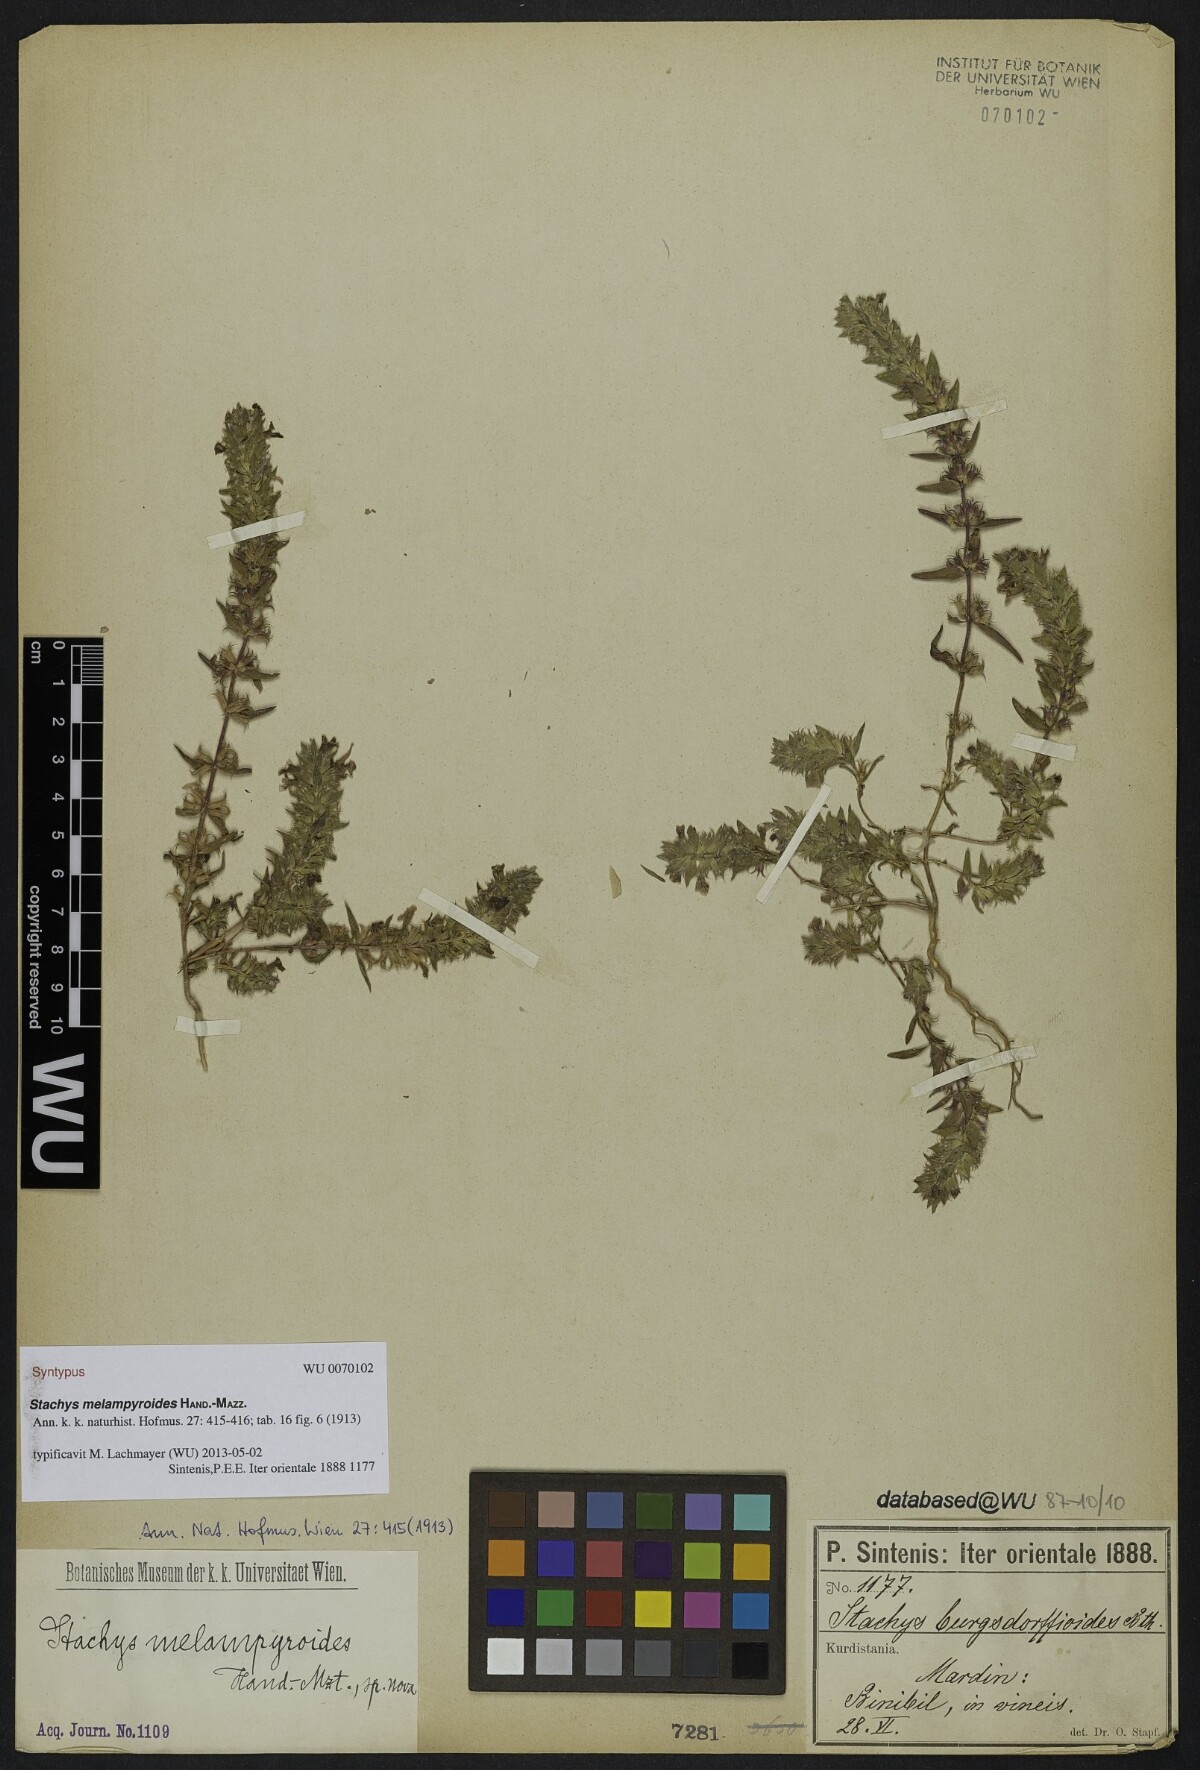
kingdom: Plantae
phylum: Tracheophyta
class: Magnoliopsida
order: Lamiales
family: Lamiaceae
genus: Stachys
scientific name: Stachys melampyroides
